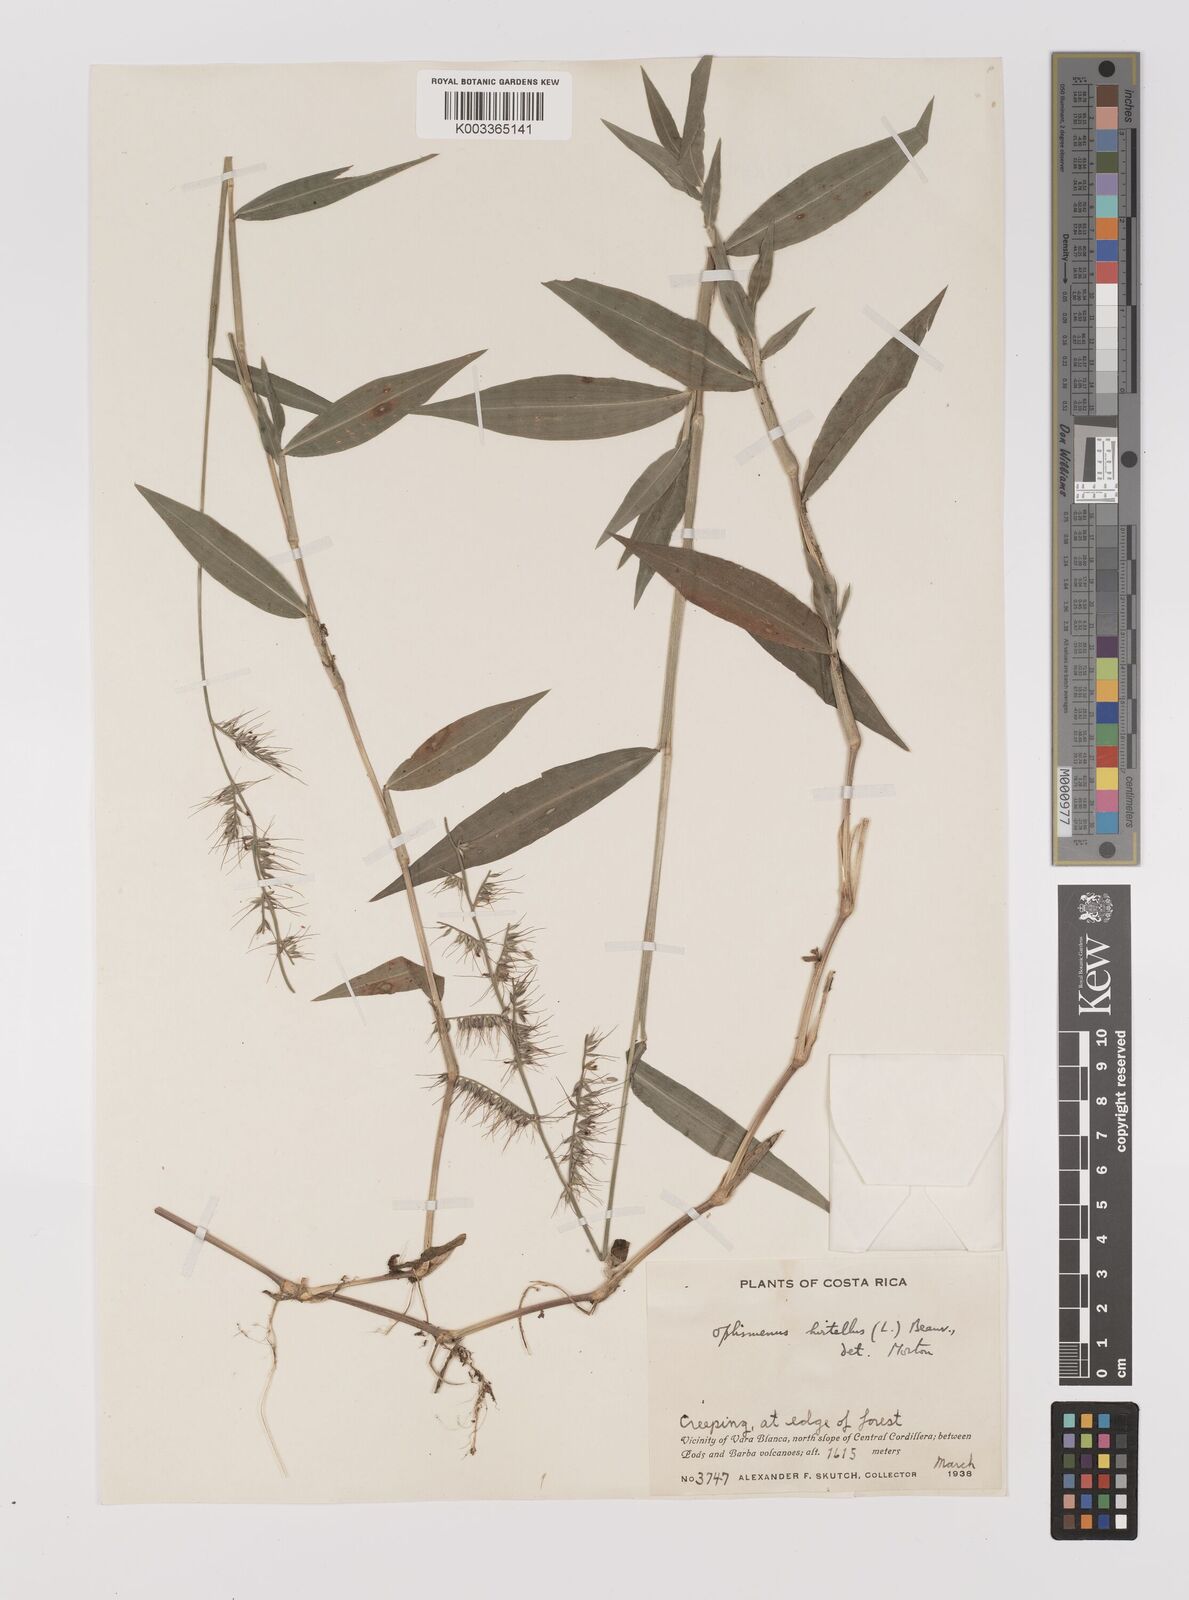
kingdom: Plantae
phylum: Tracheophyta
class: Liliopsida
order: Poales
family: Poaceae
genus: Oplismenus
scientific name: Oplismenus hirtellus
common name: Basketgrass
